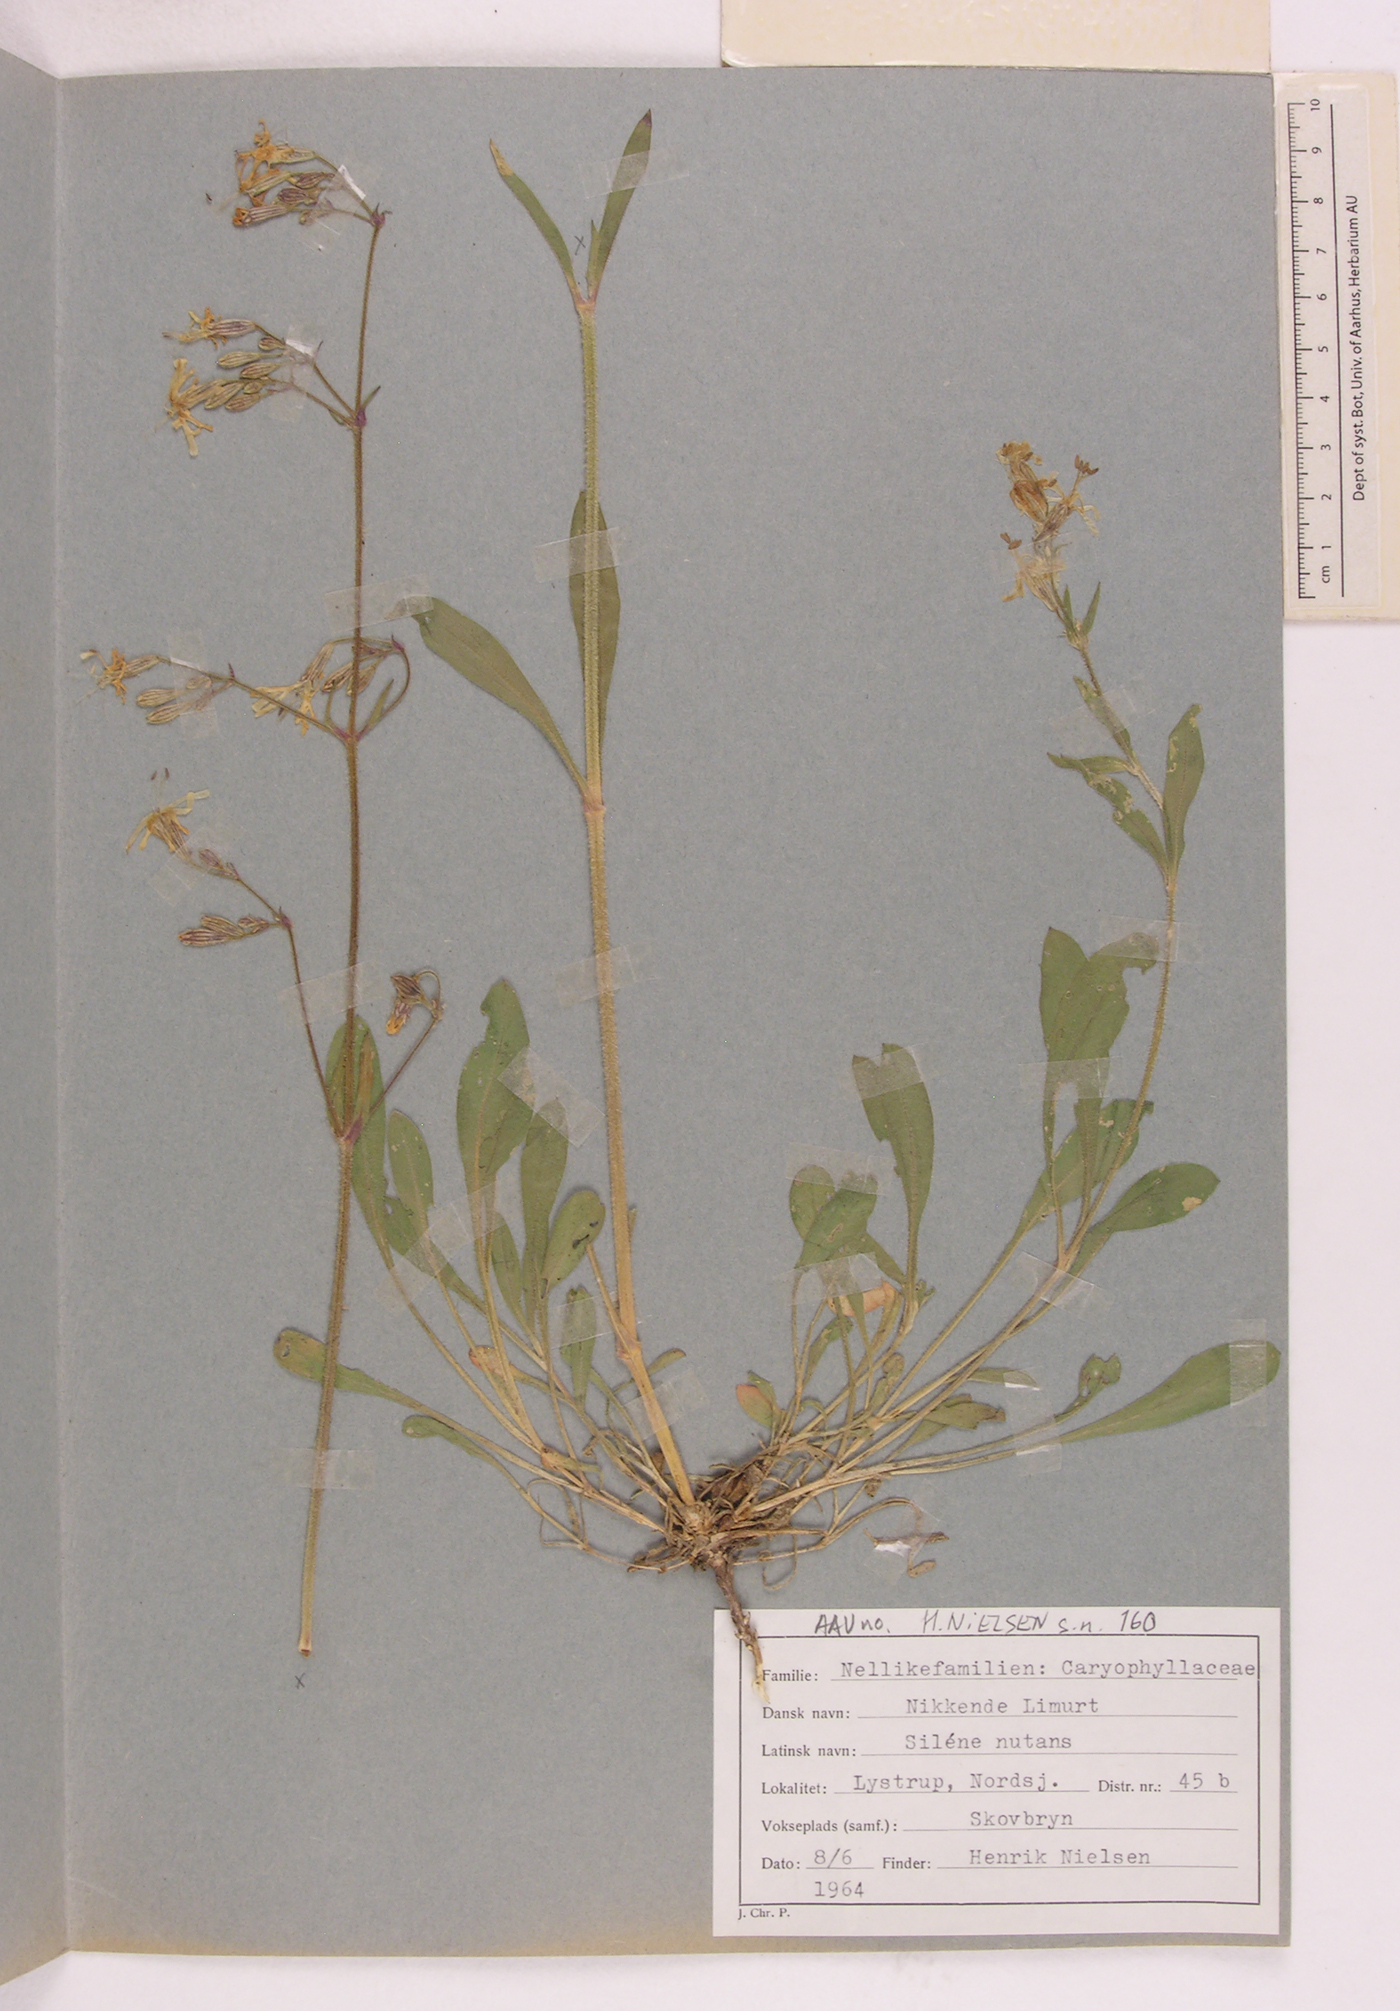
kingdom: Plantae
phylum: Tracheophyta
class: Magnoliopsida
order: Caryophyllales
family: Caryophyllaceae
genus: Silene
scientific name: Silene nutans
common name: Nottingham catchfly
